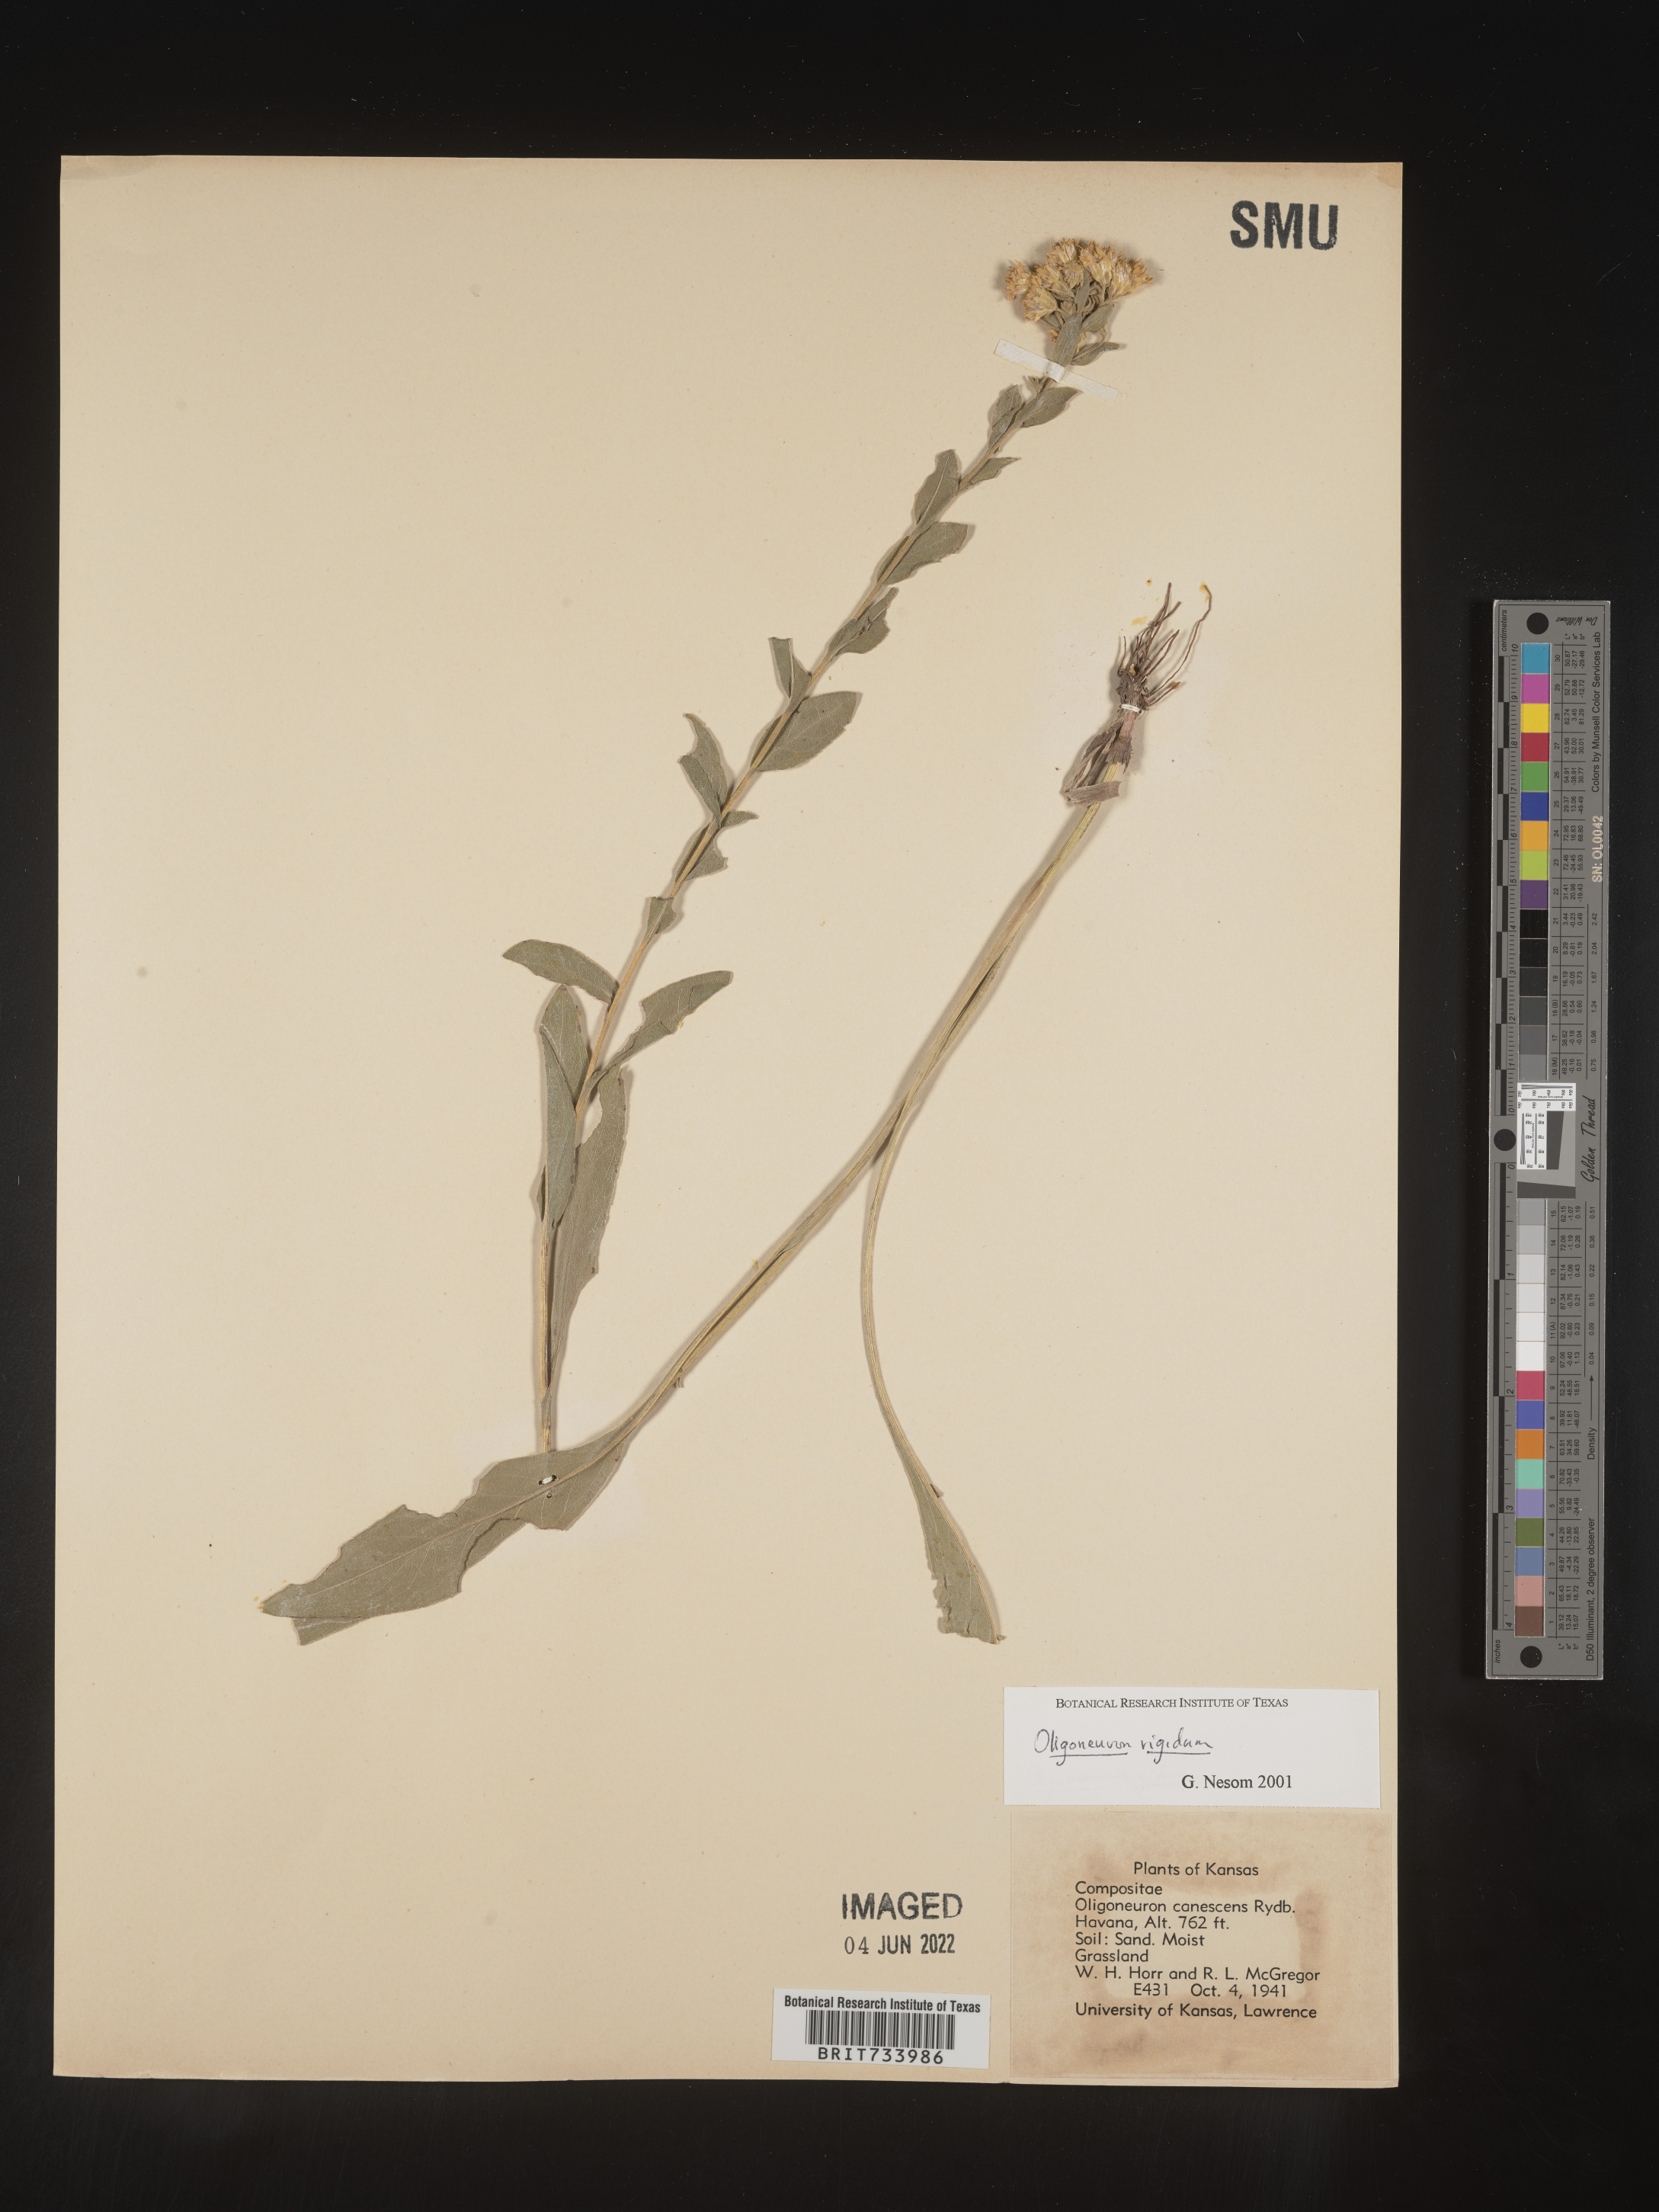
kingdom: Plantae
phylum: Tracheophyta
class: Magnoliopsida
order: Asterales
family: Asteraceae
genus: Solidago
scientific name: Solidago rigida
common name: Rigid goldenrod
